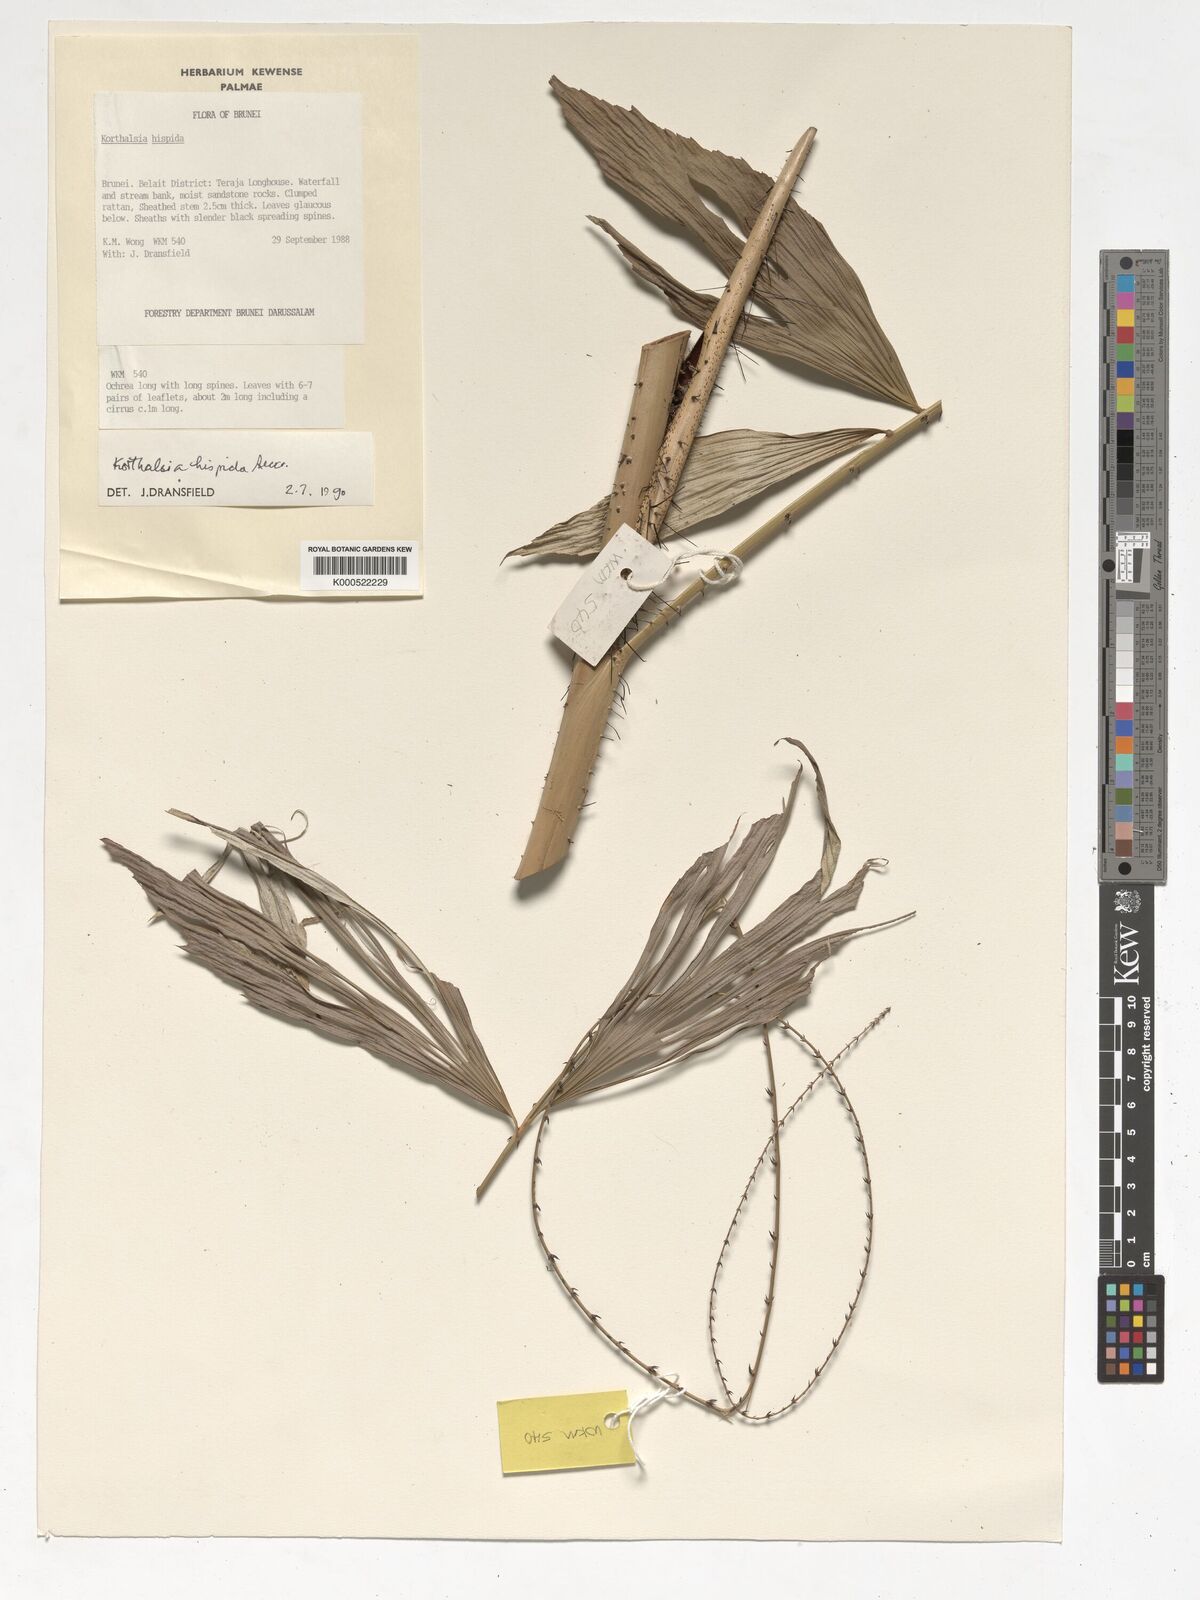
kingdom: Plantae
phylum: Tracheophyta
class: Liliopsida
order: Arecales
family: Arecaceae
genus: Korthalsia
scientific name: Korthalsia hispida
